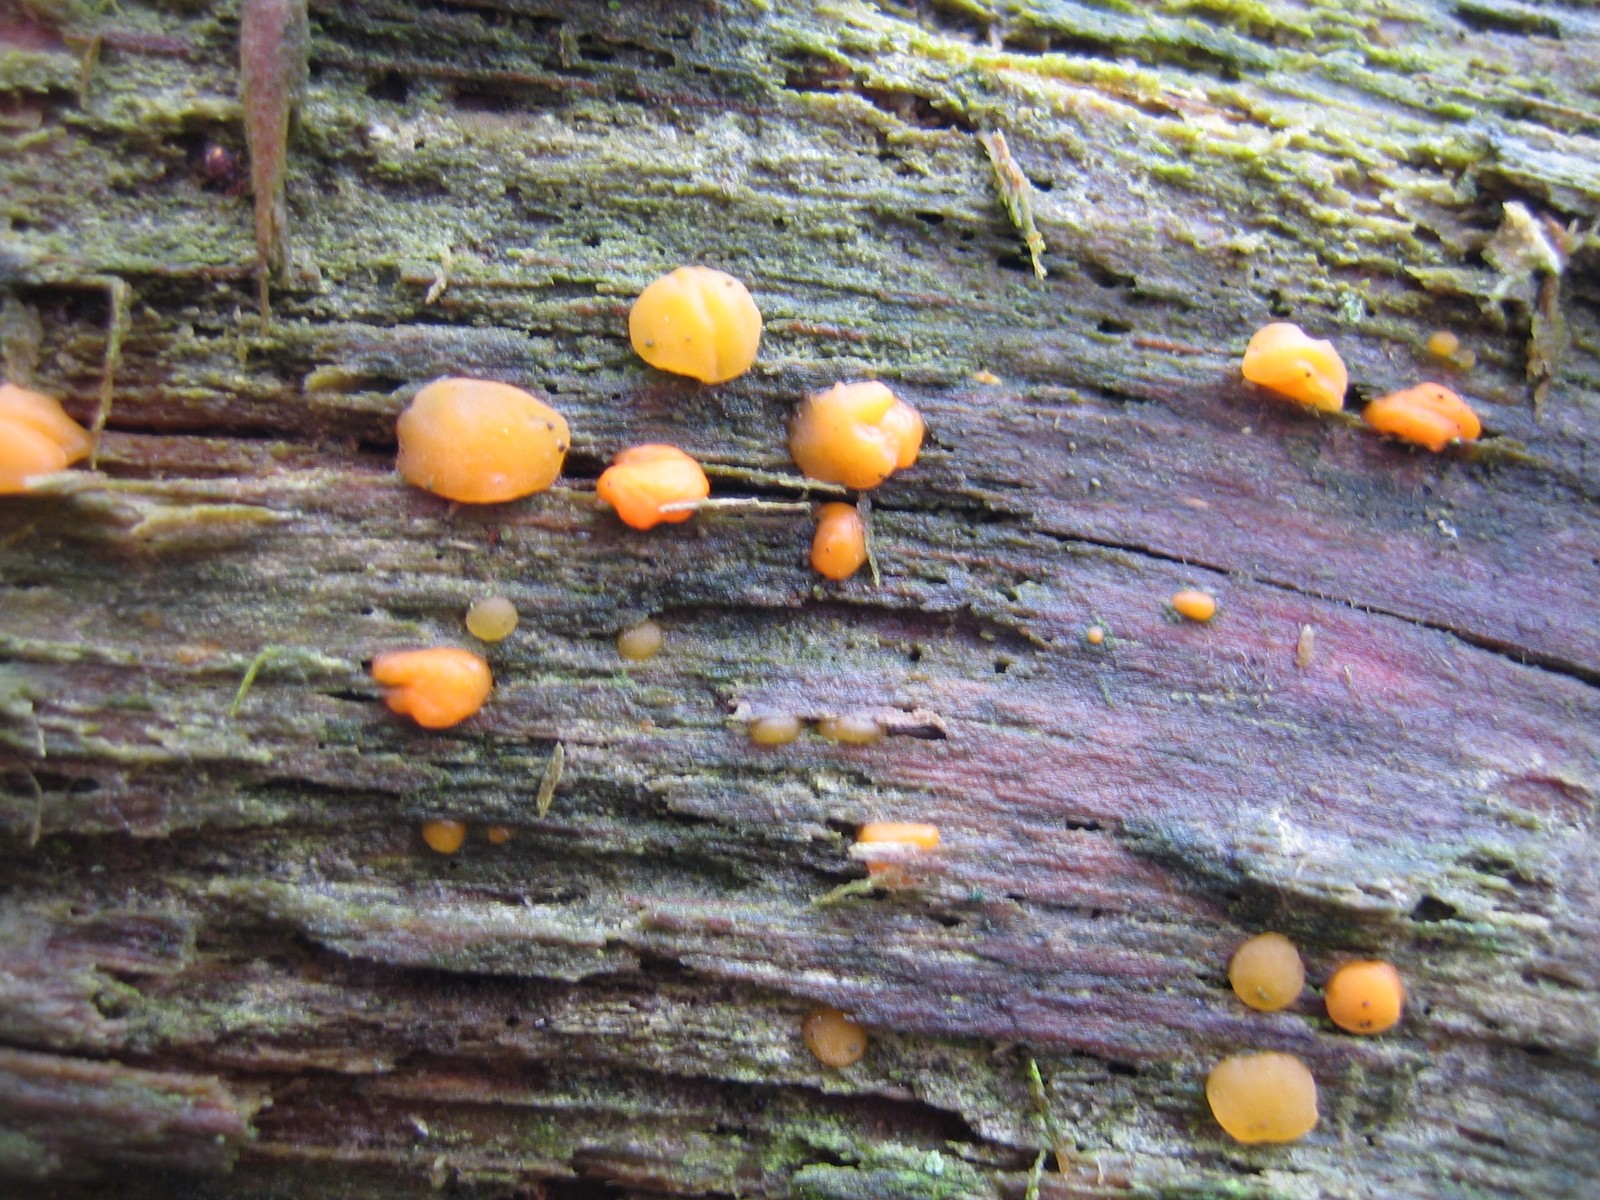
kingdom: Fungi
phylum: Basidiomycota
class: Dacrymycetes
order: Dacrymycetales
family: Dacrymycetaceae
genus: Dacrymyces
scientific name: Dacrymyces stillatus
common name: almindelig tåresvamp
